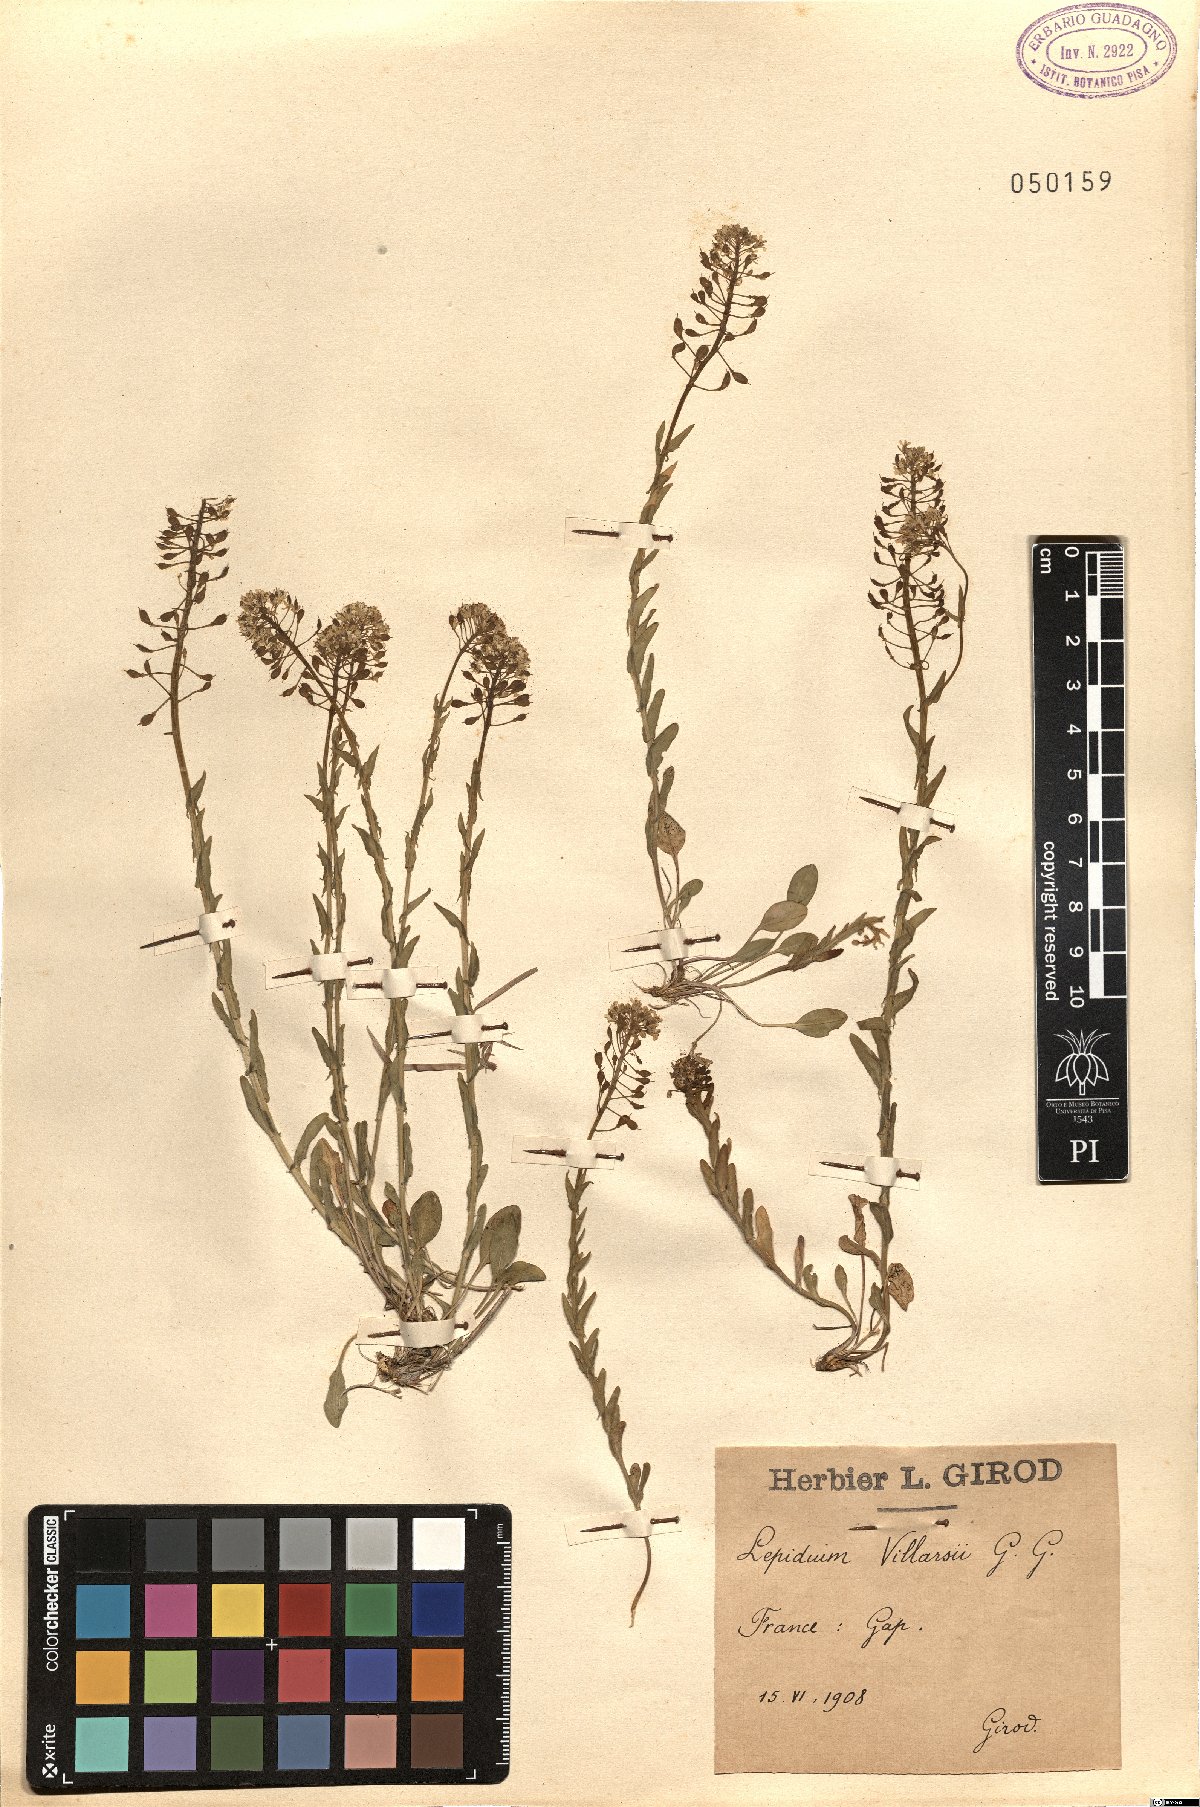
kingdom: Plantae
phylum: Tracheophyta
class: Magnoliopsida
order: Brassicales
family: Brassicaceae
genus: Lepidium
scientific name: Lepidium villarsii
